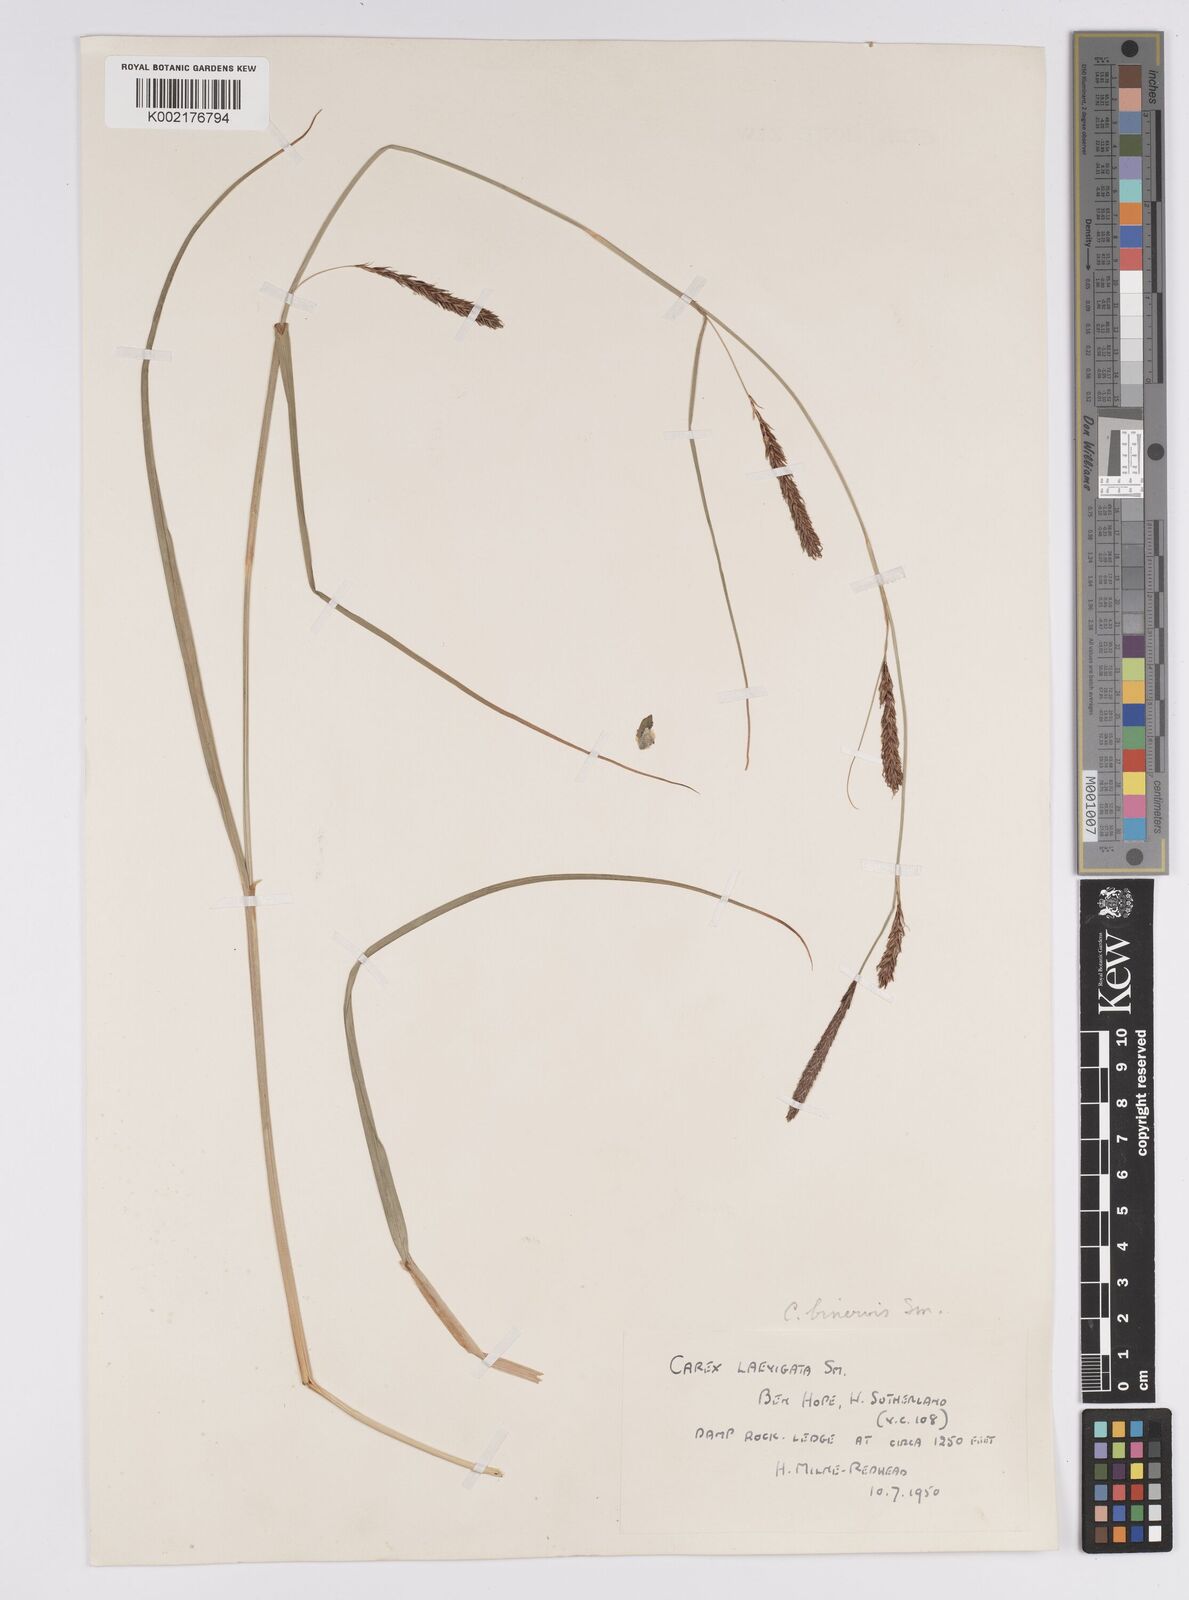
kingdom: Plantae
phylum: Tracheophyta
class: Liliopsida
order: Poales
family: Cyperaceae
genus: Carex
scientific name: Carex binervis
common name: Green-ribbed sedge
